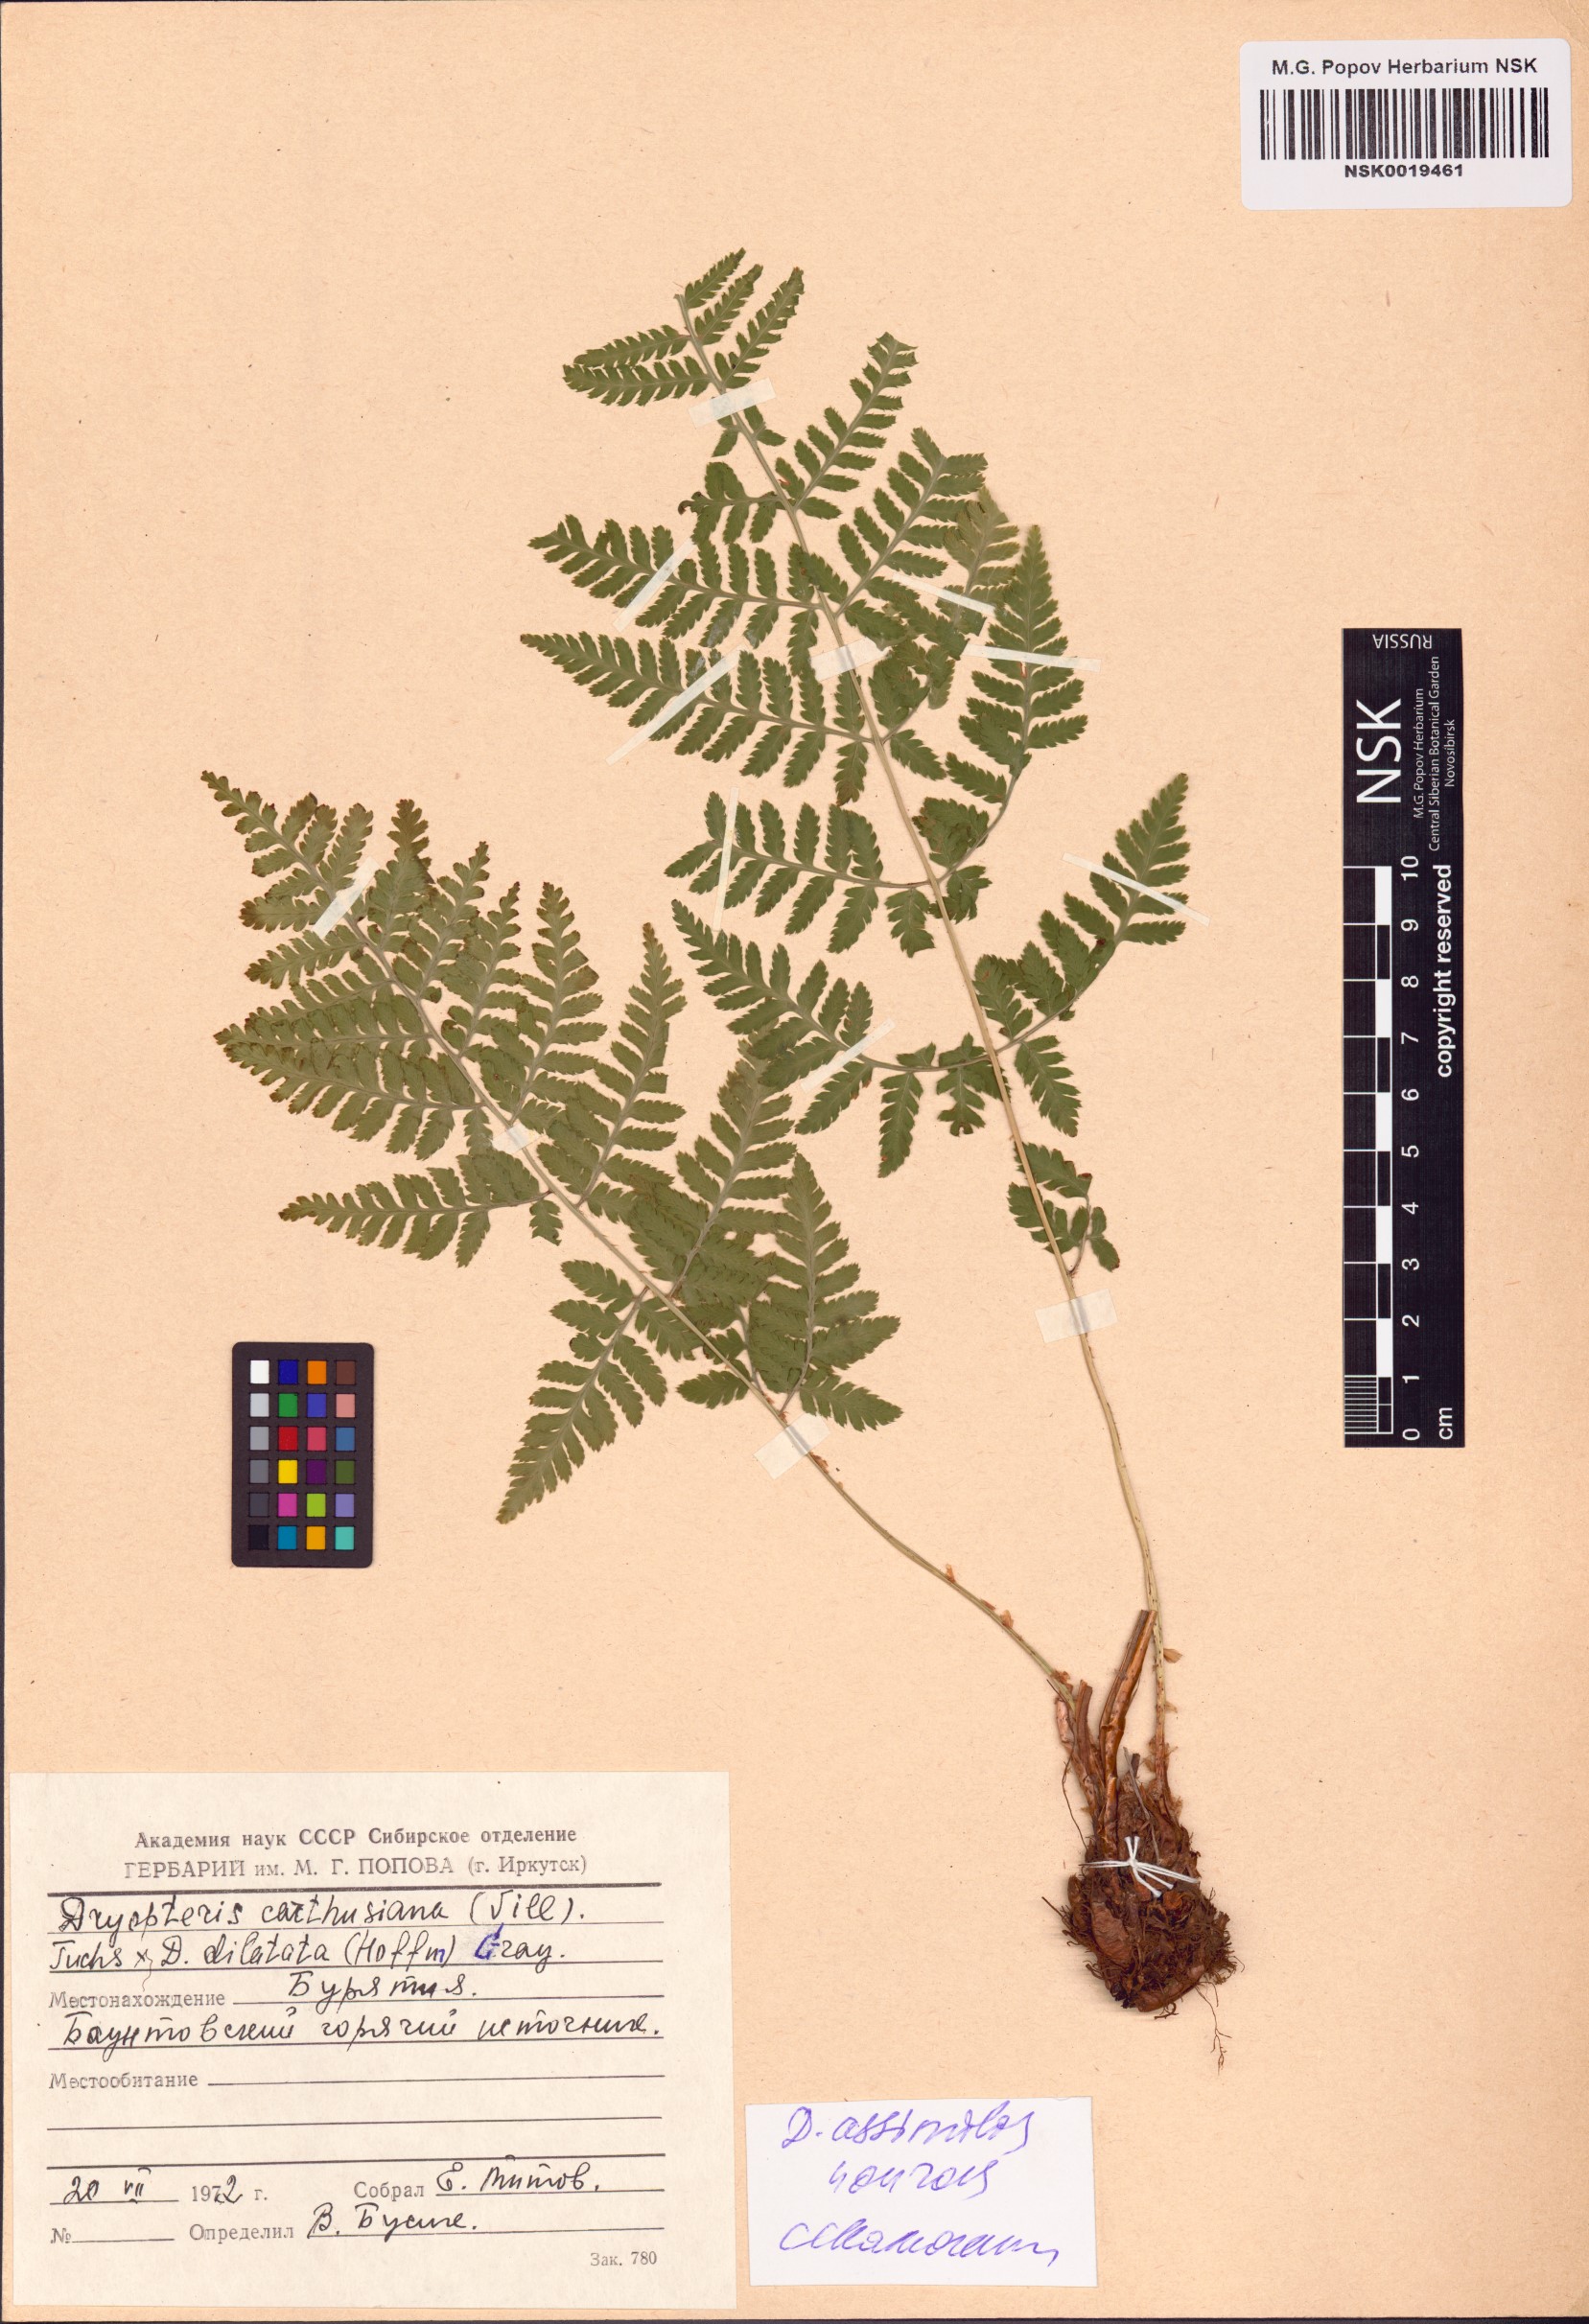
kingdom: Plantae
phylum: Tracheophyta
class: Polypodiopsida
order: Polypodiales
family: Dryopteridaceae
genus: Dryopteris
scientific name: Dryopteris expansa
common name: Northern buckler fern
